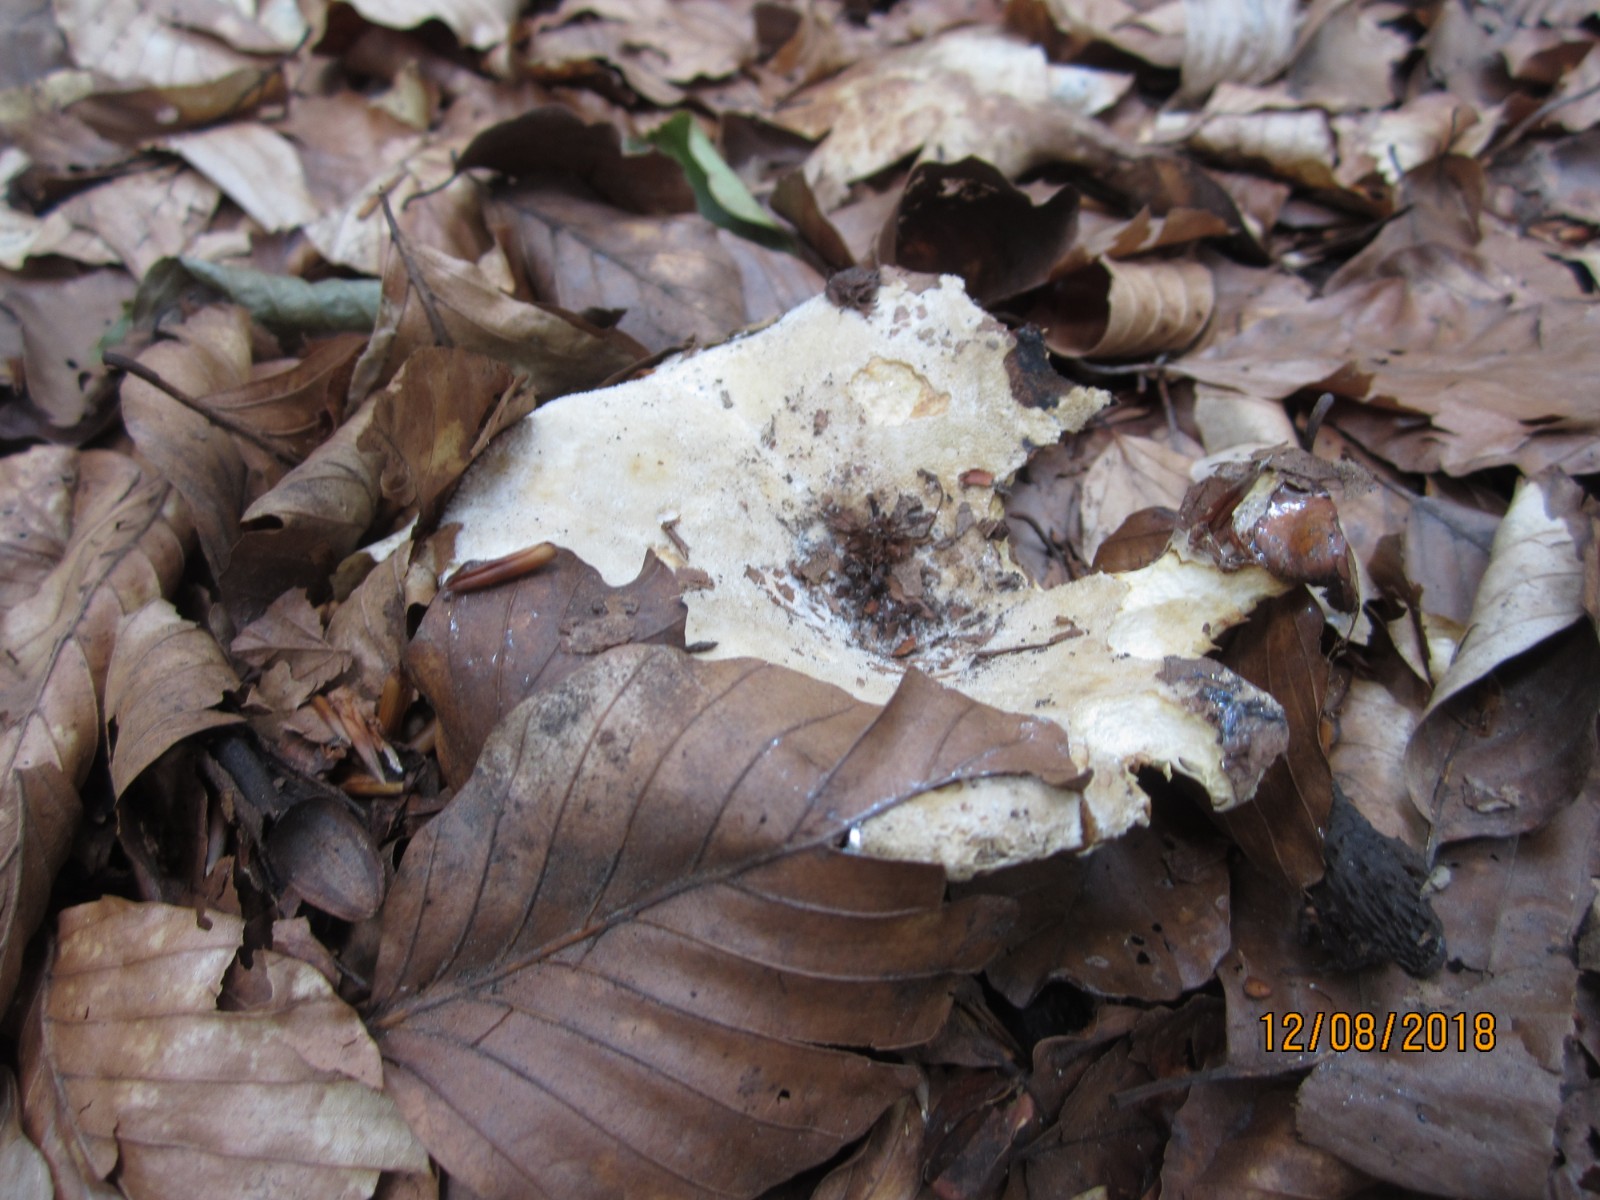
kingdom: Fungi
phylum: Basidiomycota
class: Agaricomycetes
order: Russulales
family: Russulaceae
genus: Lactifluus
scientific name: Lactifluus vellereus
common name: hvidfiltet mælkehat
